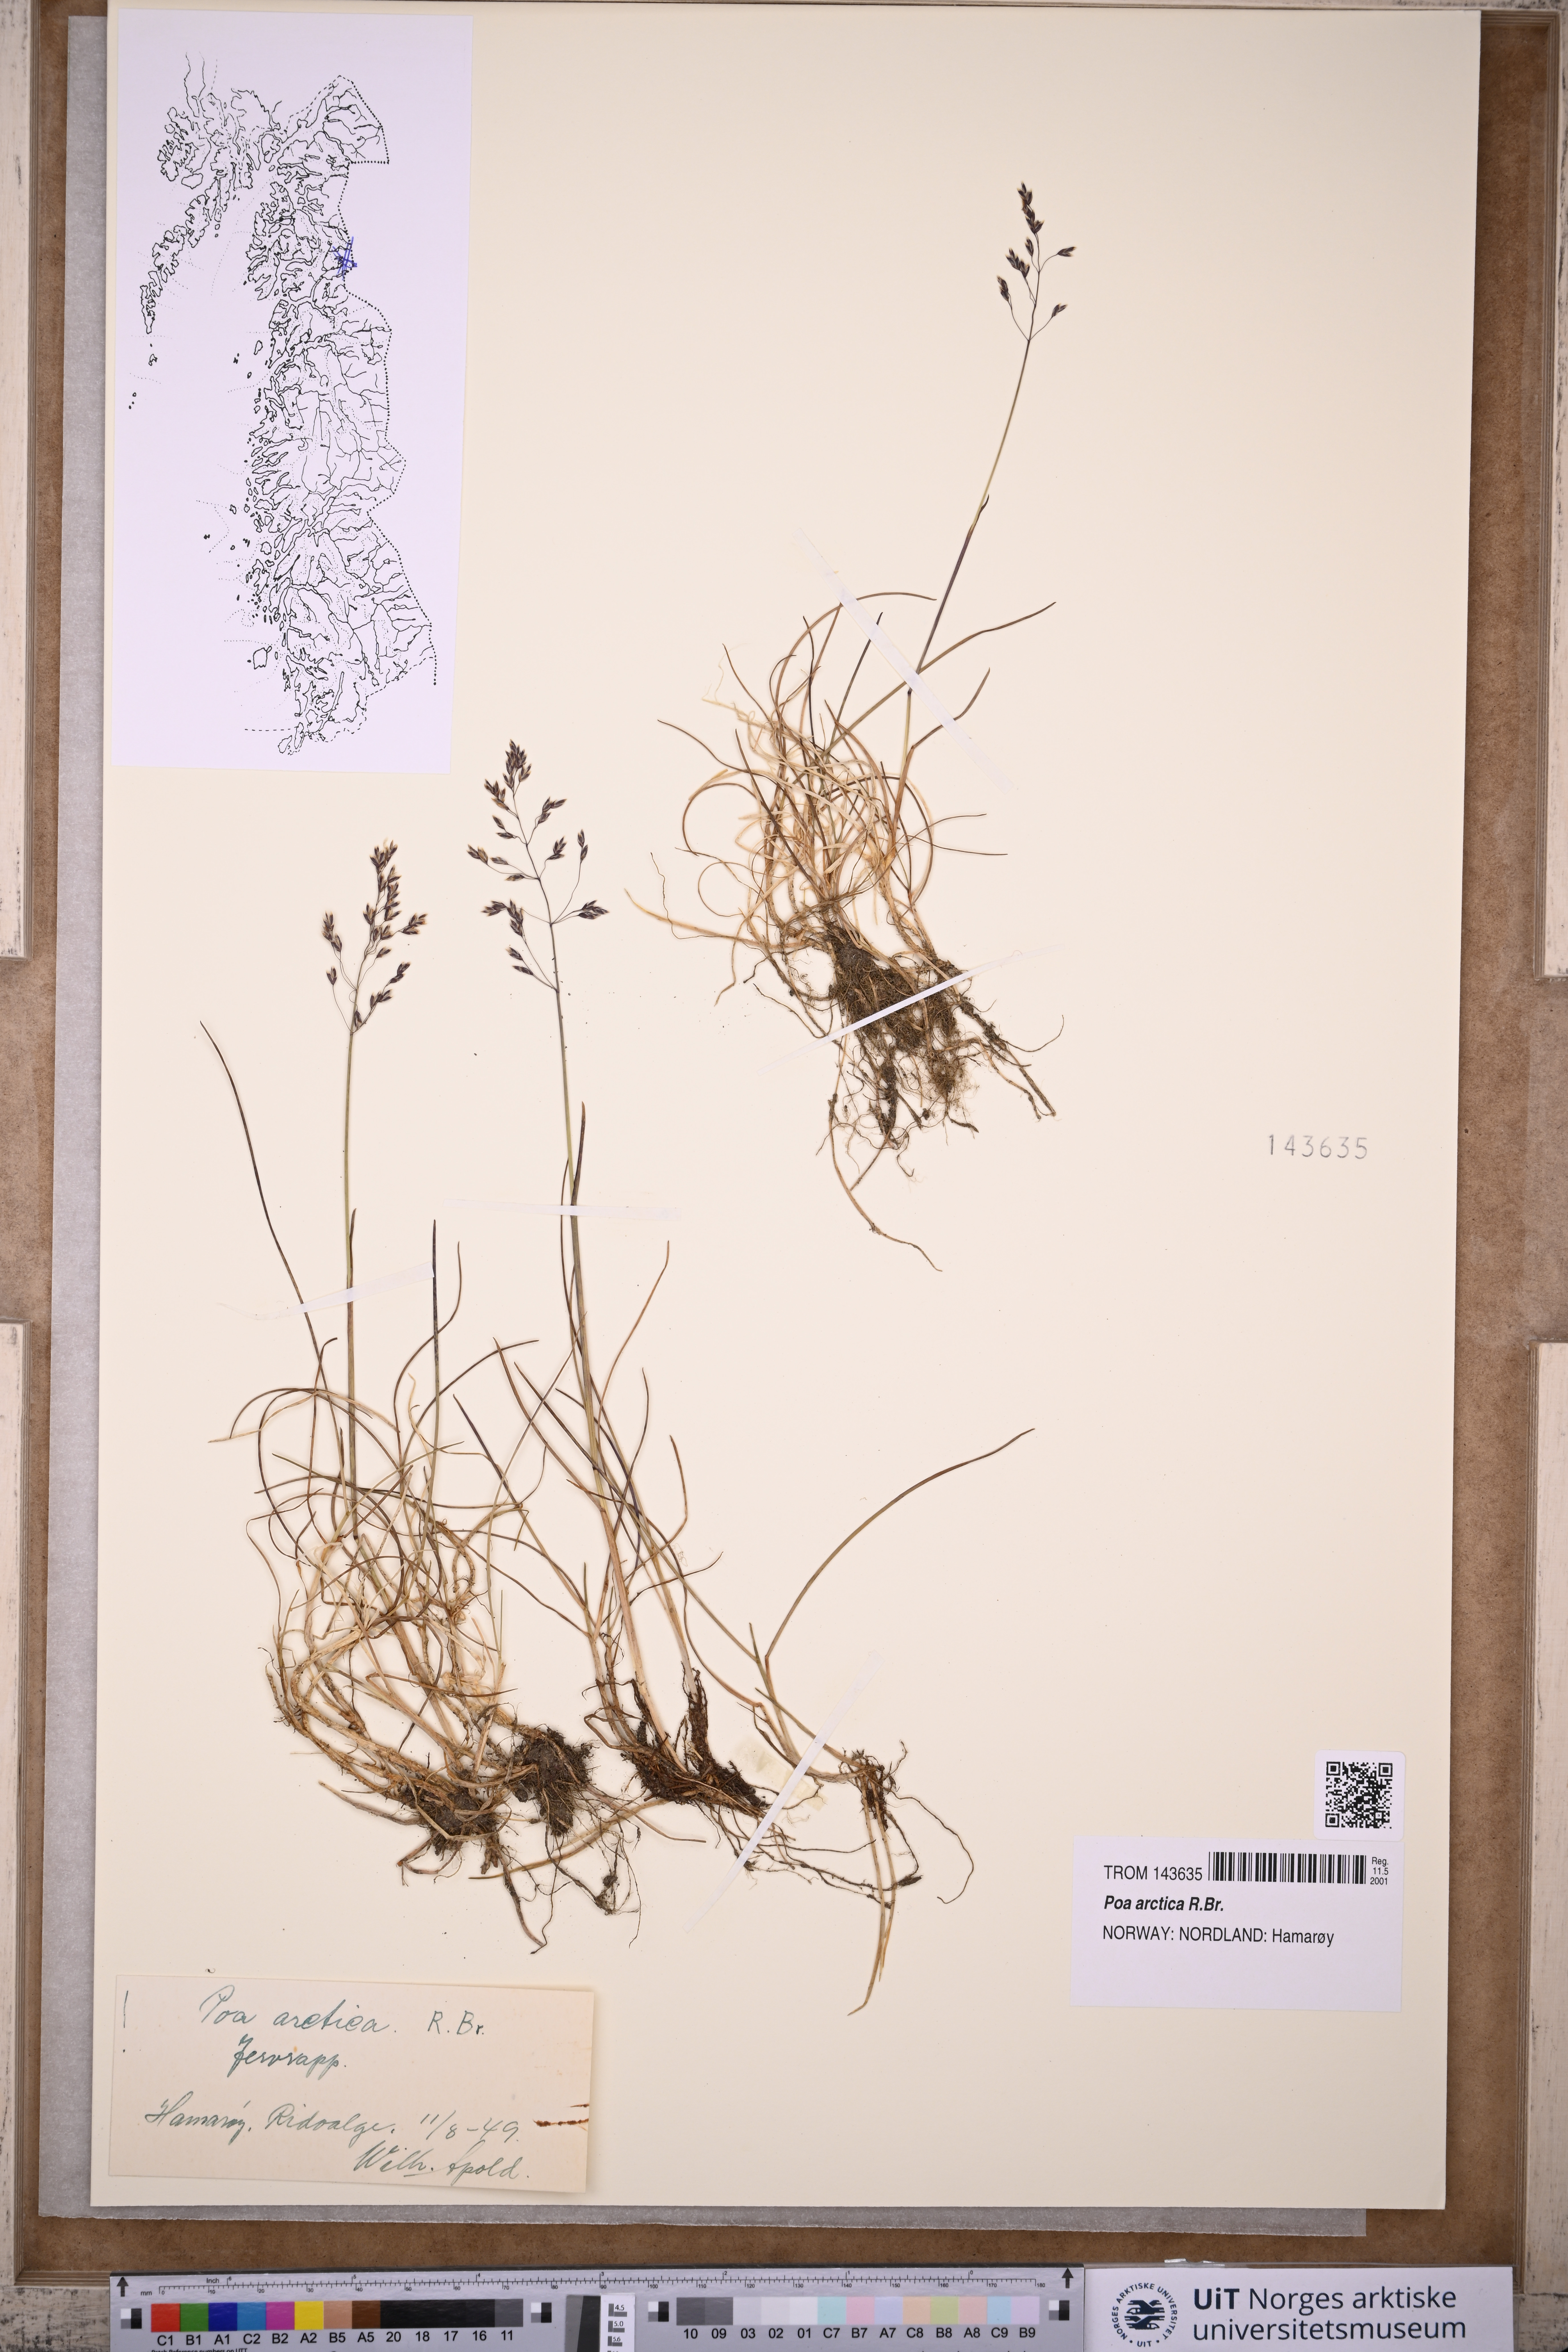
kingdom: Plantae
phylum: Tracheophyta
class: Liliopsida
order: Poales
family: Poaceae
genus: Poa
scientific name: Poa arctica
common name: Arctic bluegrass
